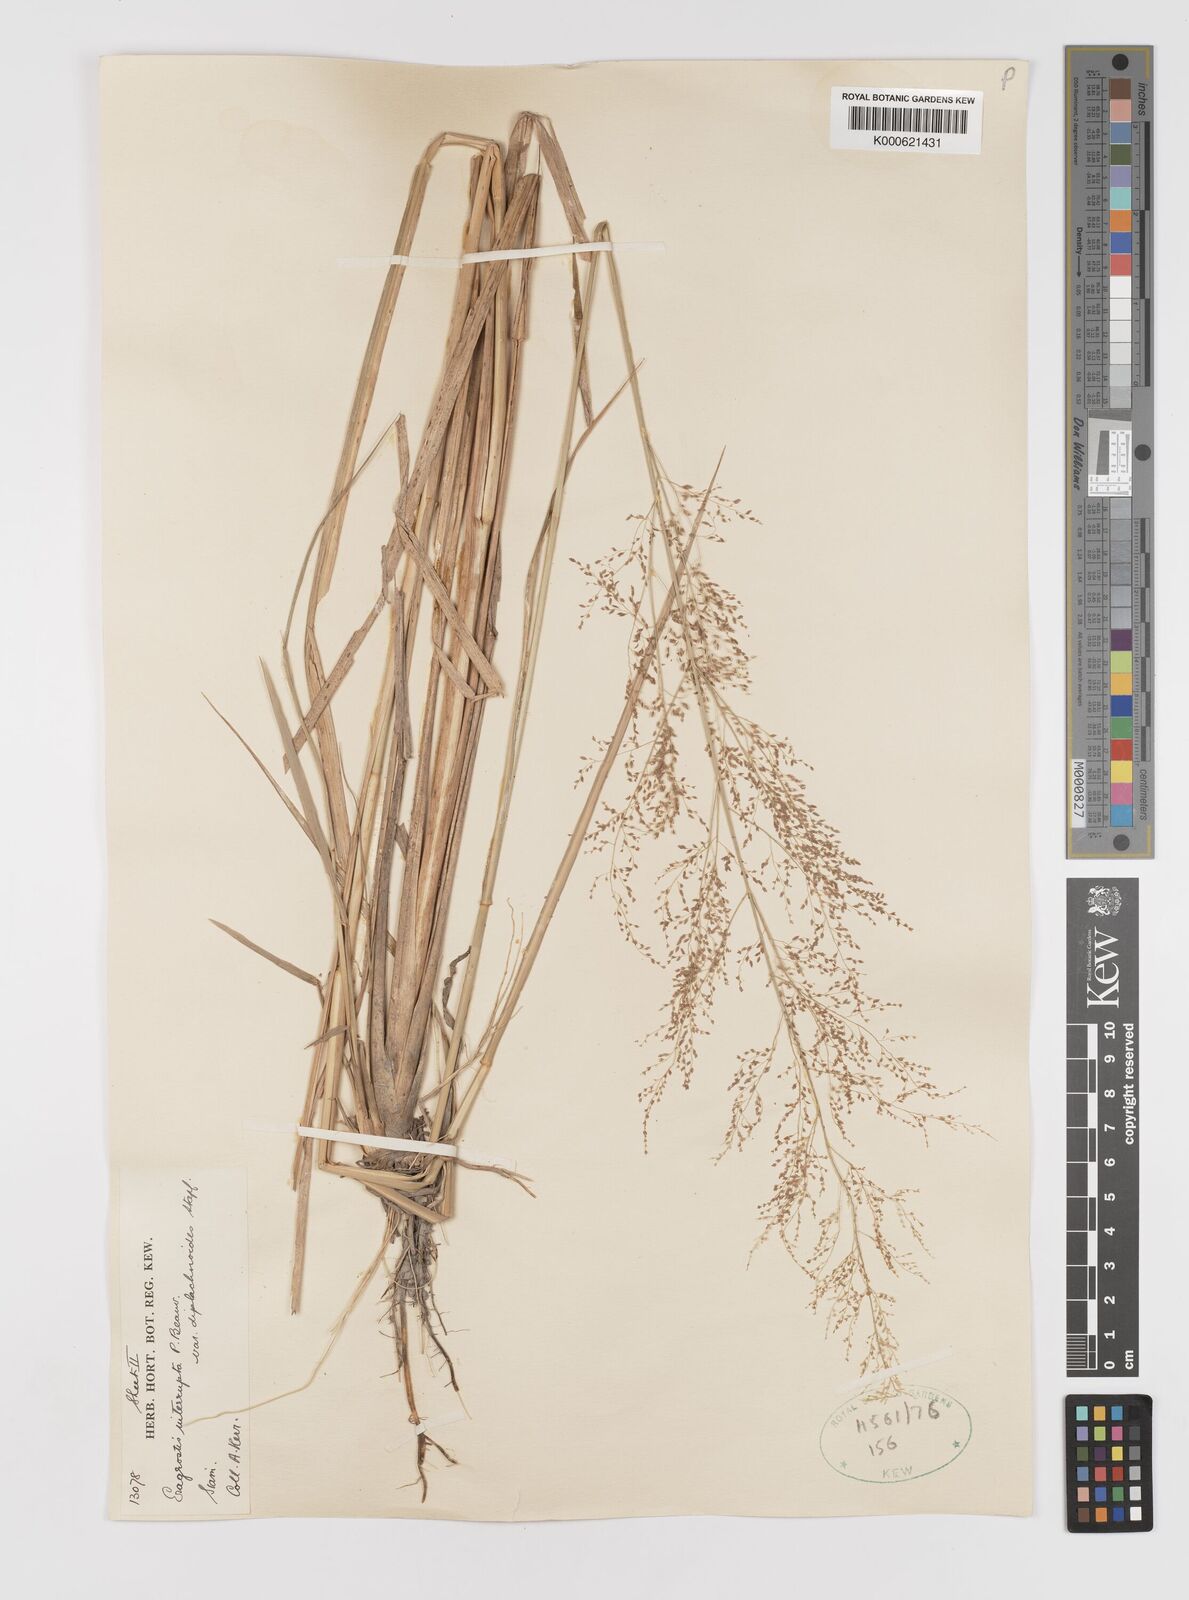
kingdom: Plantae
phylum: Tracheophyta
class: Liliopsida
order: Poales
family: Poaceae
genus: Eragrostis
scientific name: Eragrostis japonica
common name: Pond lovegrass
